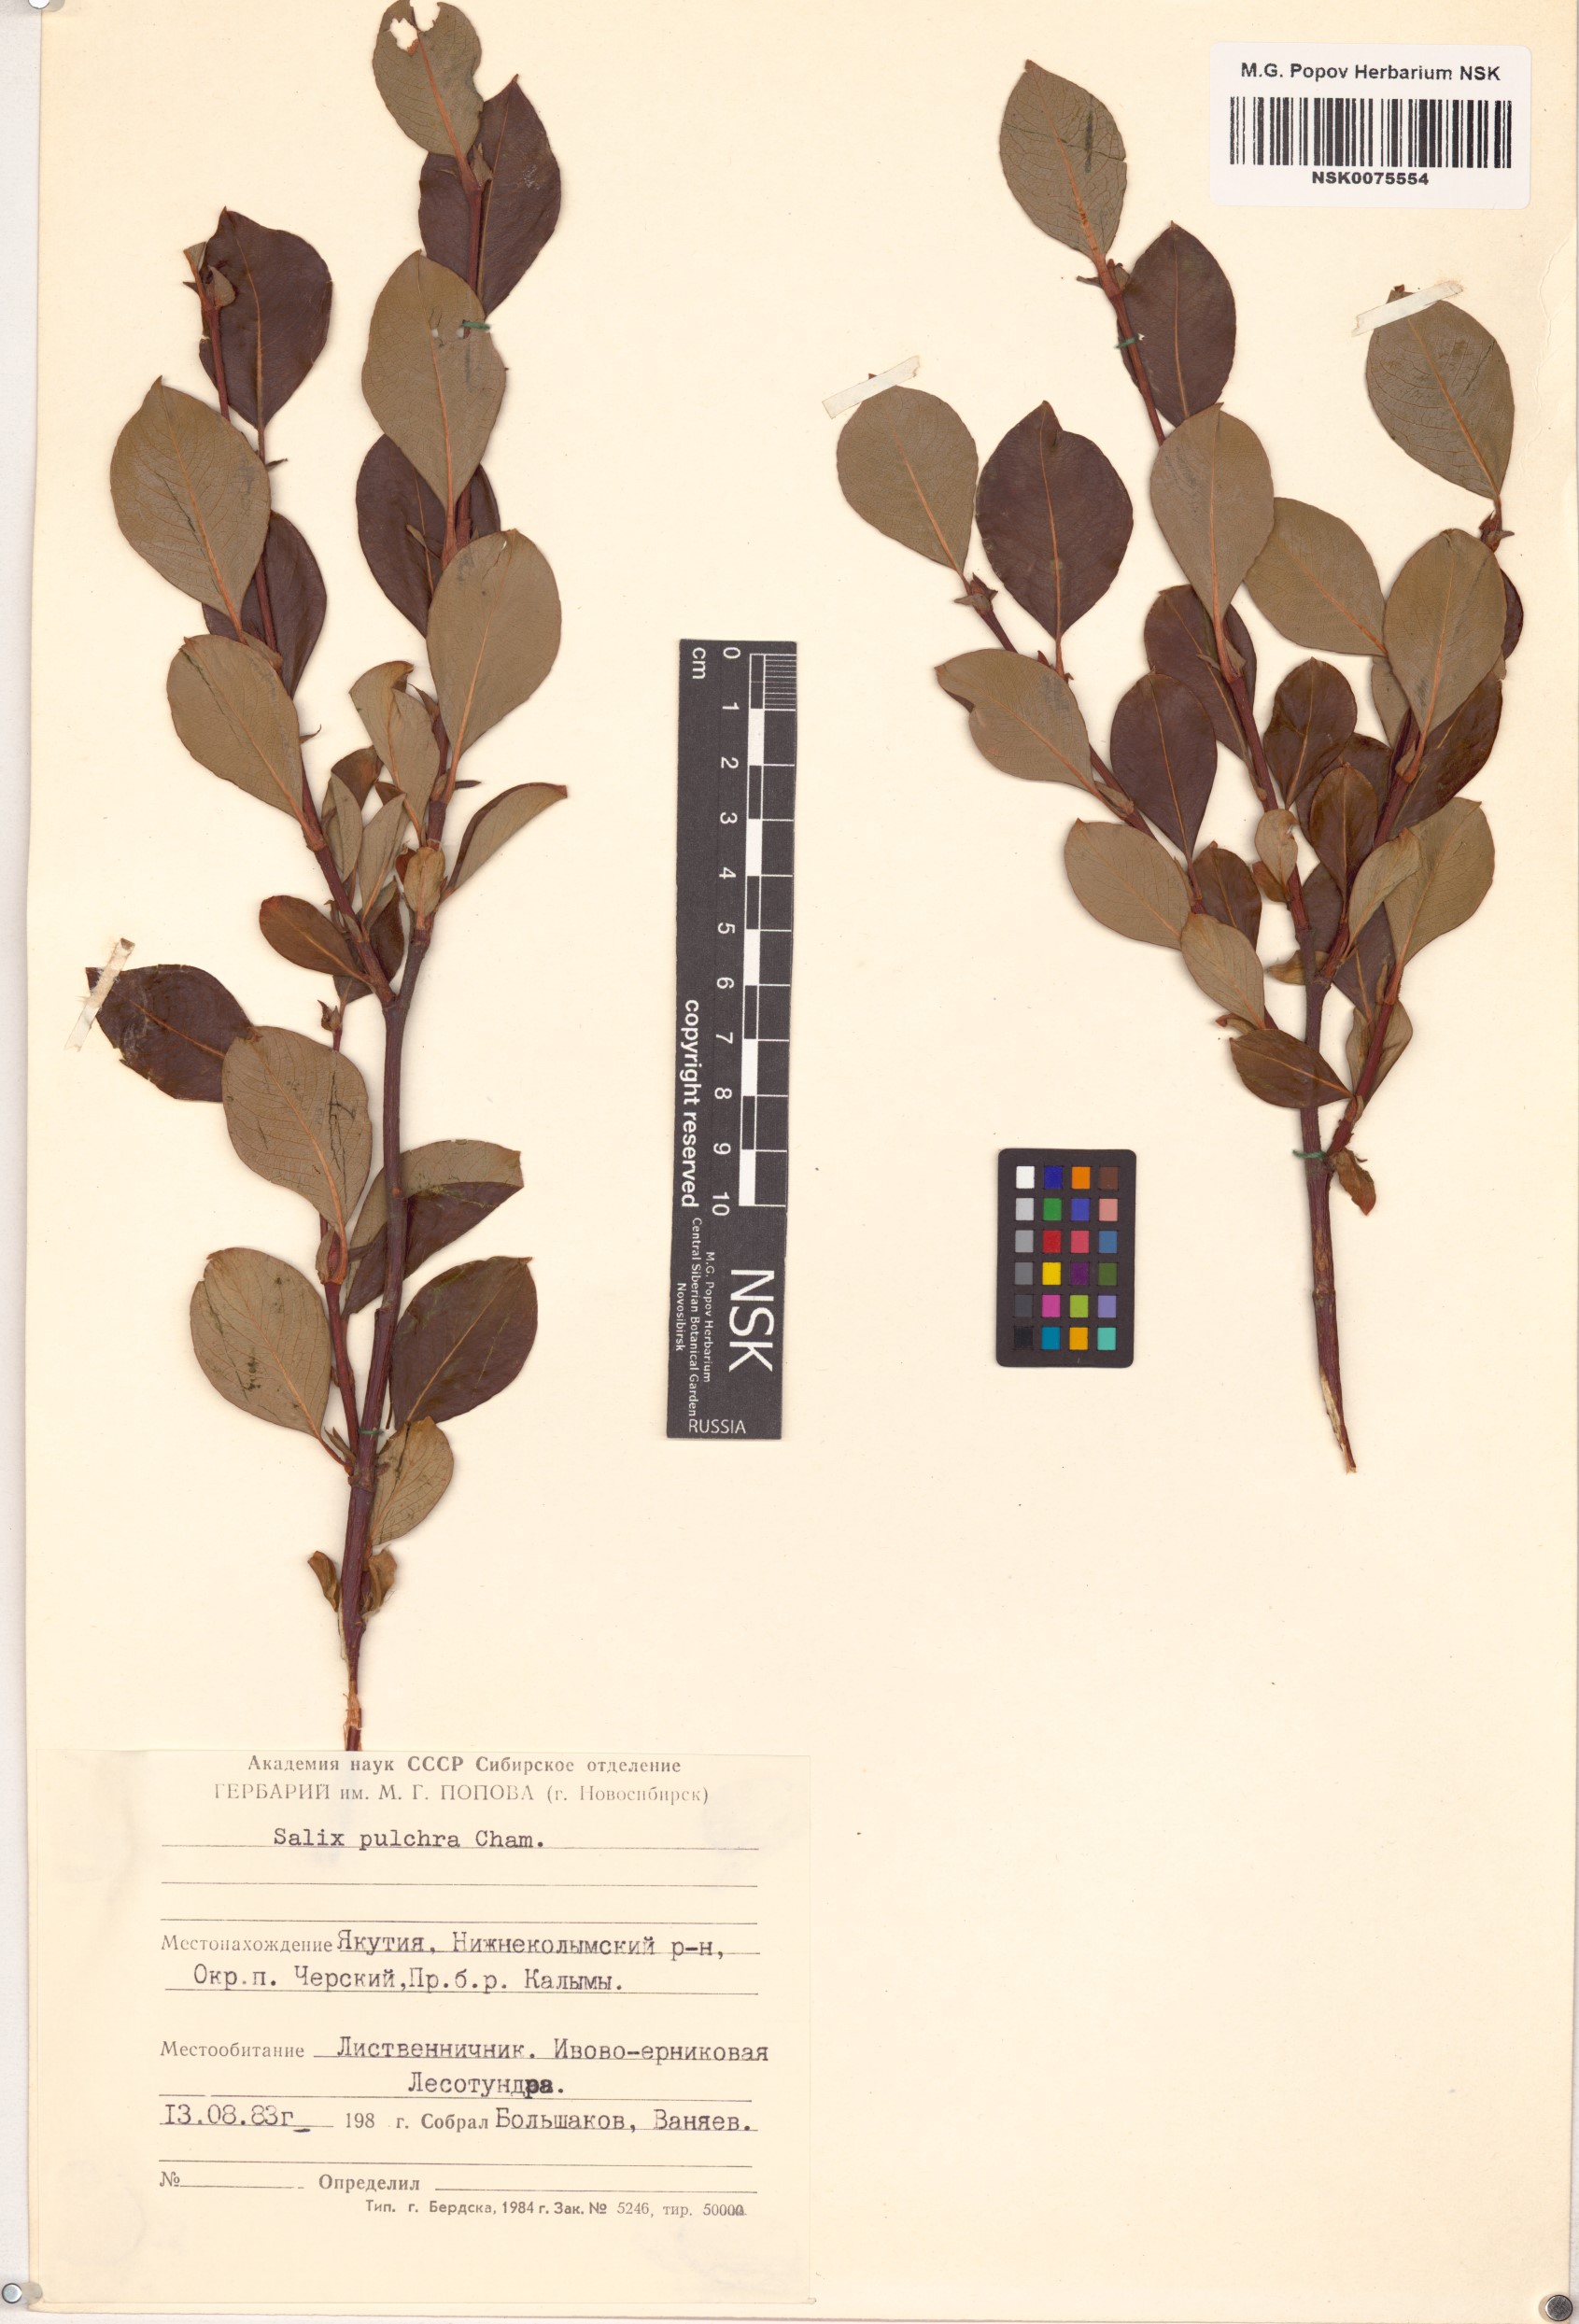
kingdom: Plantae
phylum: Tracheophyta
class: Magnoliopsida
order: Malpighiales
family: Salicaceae
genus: Salix
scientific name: Salix pulchra
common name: Diamond-leaved willow
